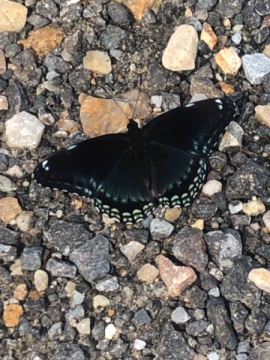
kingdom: Animalia
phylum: Arthropoda
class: Insecta
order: Lepidoptera
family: Nymphalidae
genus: Limenitis
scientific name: Limenitis arthemis
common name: Red-spotted Admiral
